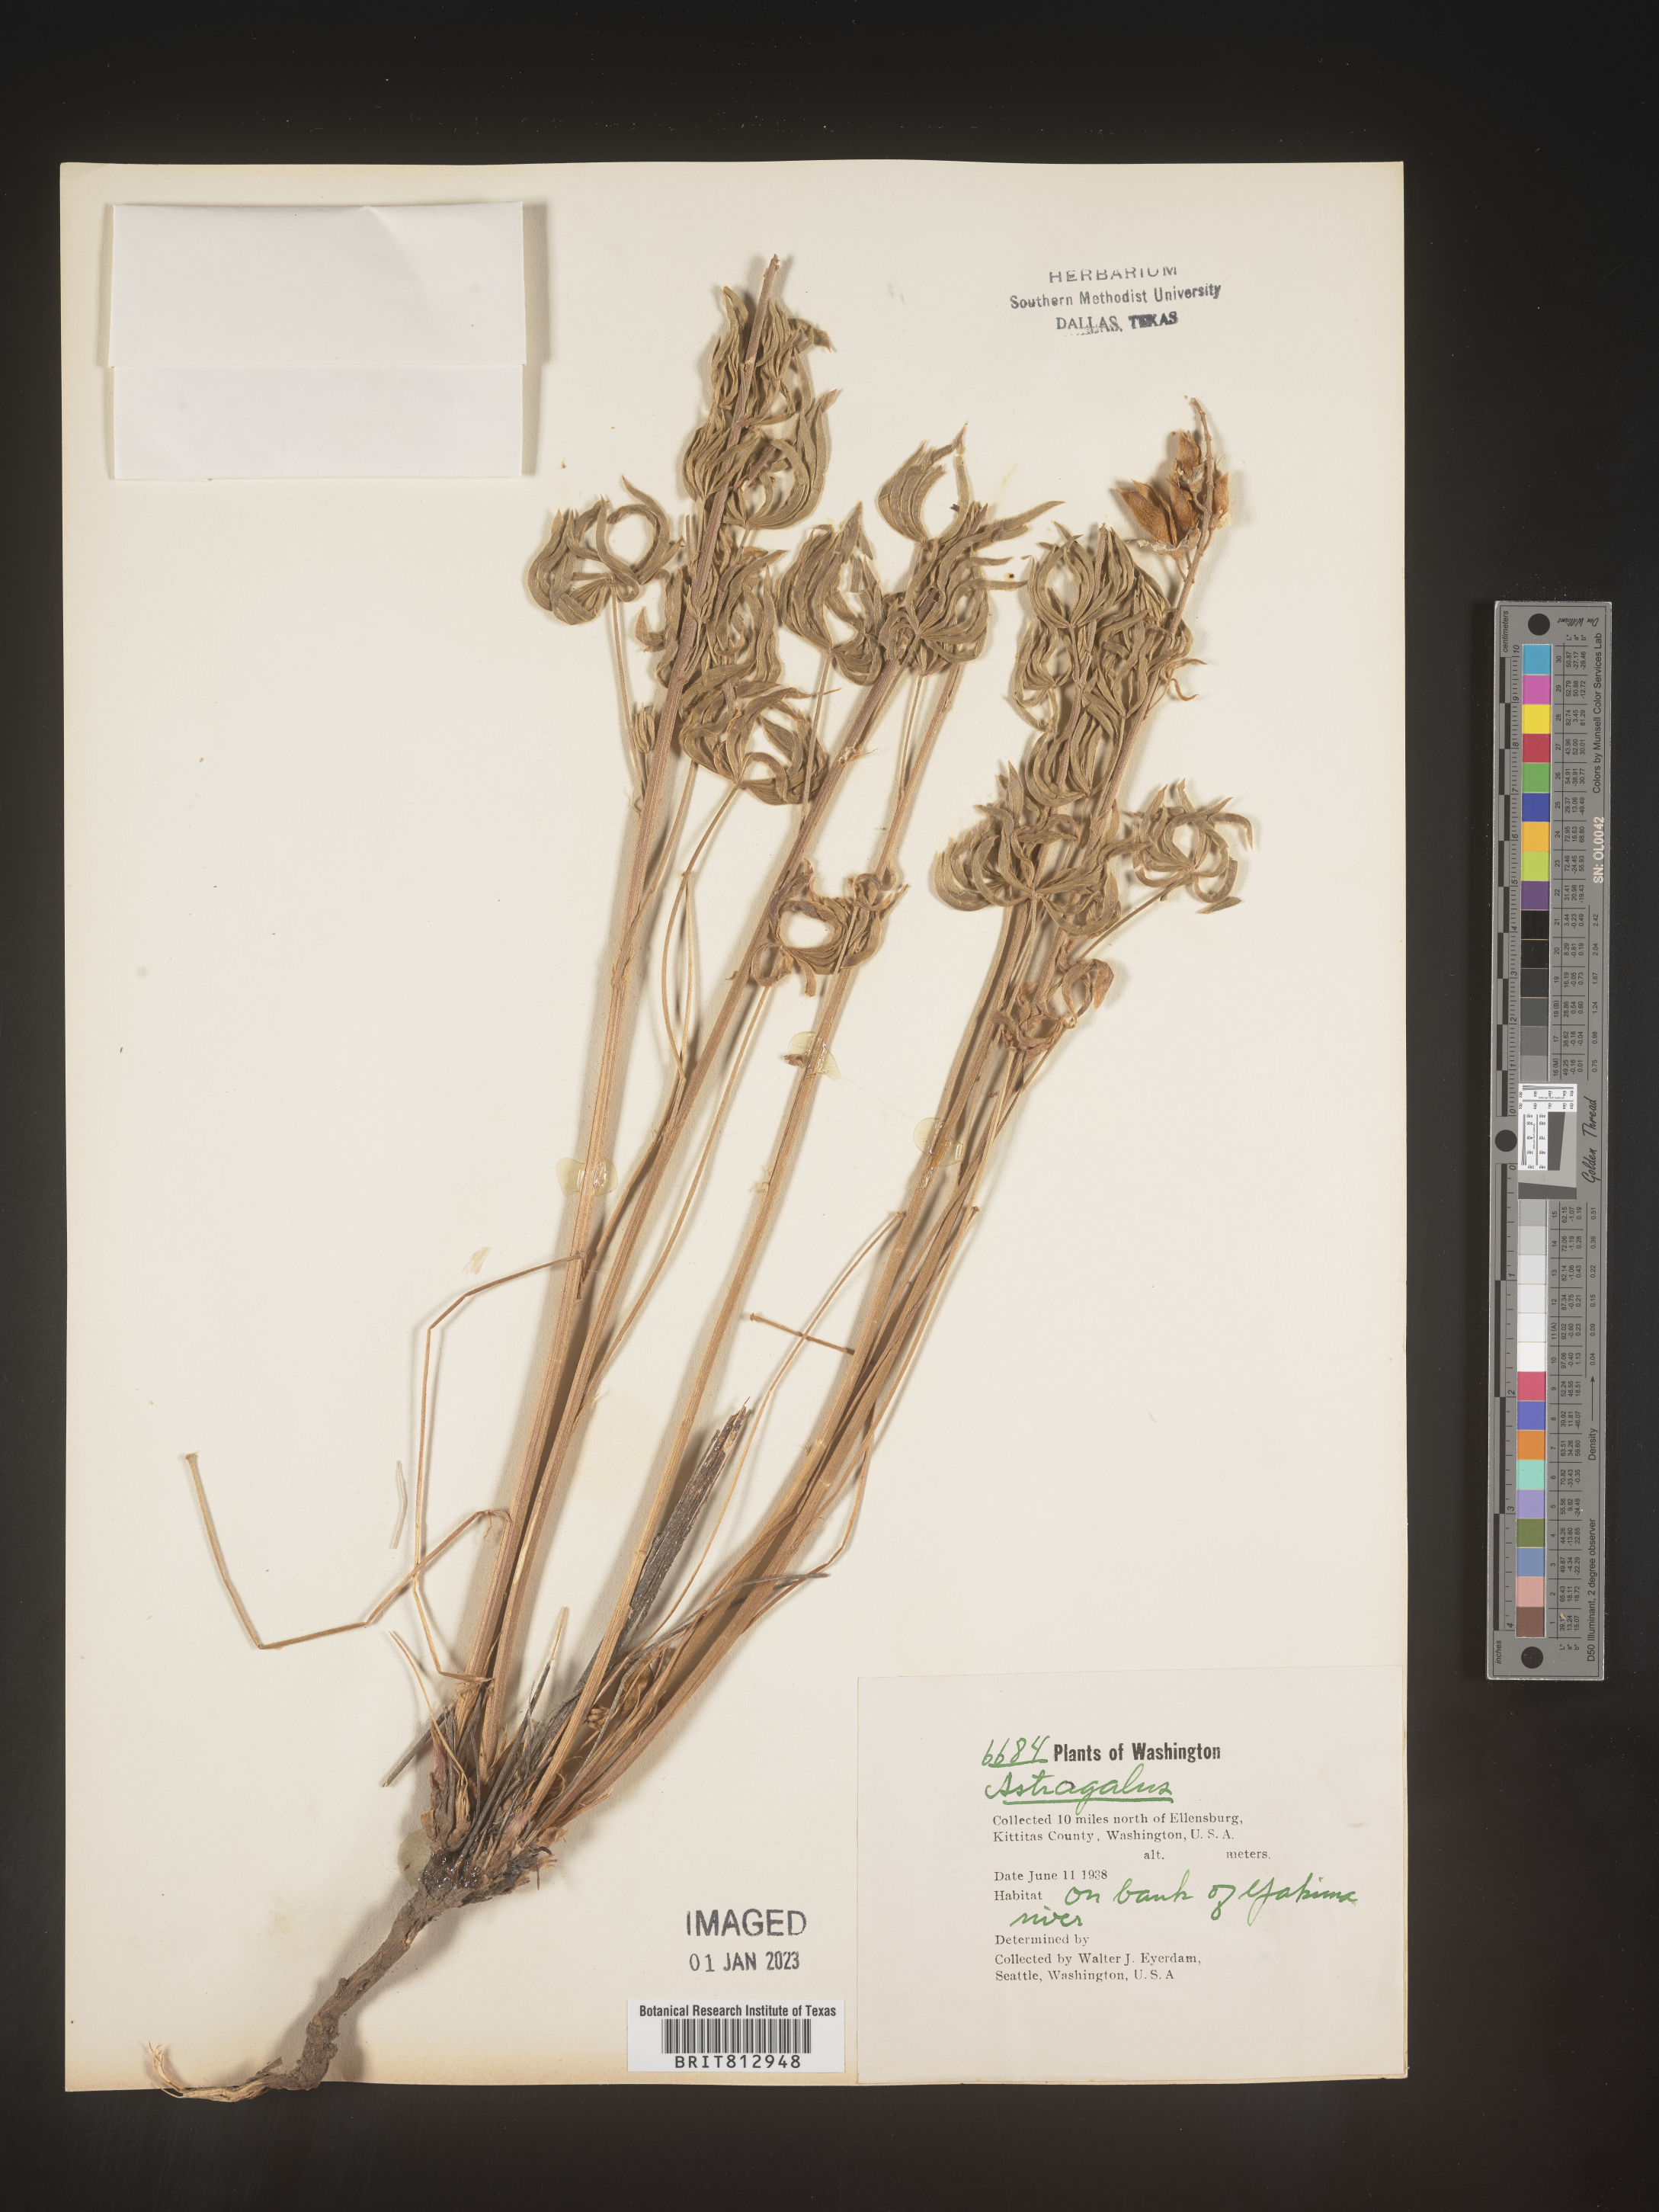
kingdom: Plantae
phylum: Tracheophyta
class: Magnoliopsida
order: Fabales
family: Fabaceae
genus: Astragalus
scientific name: Astragalus
